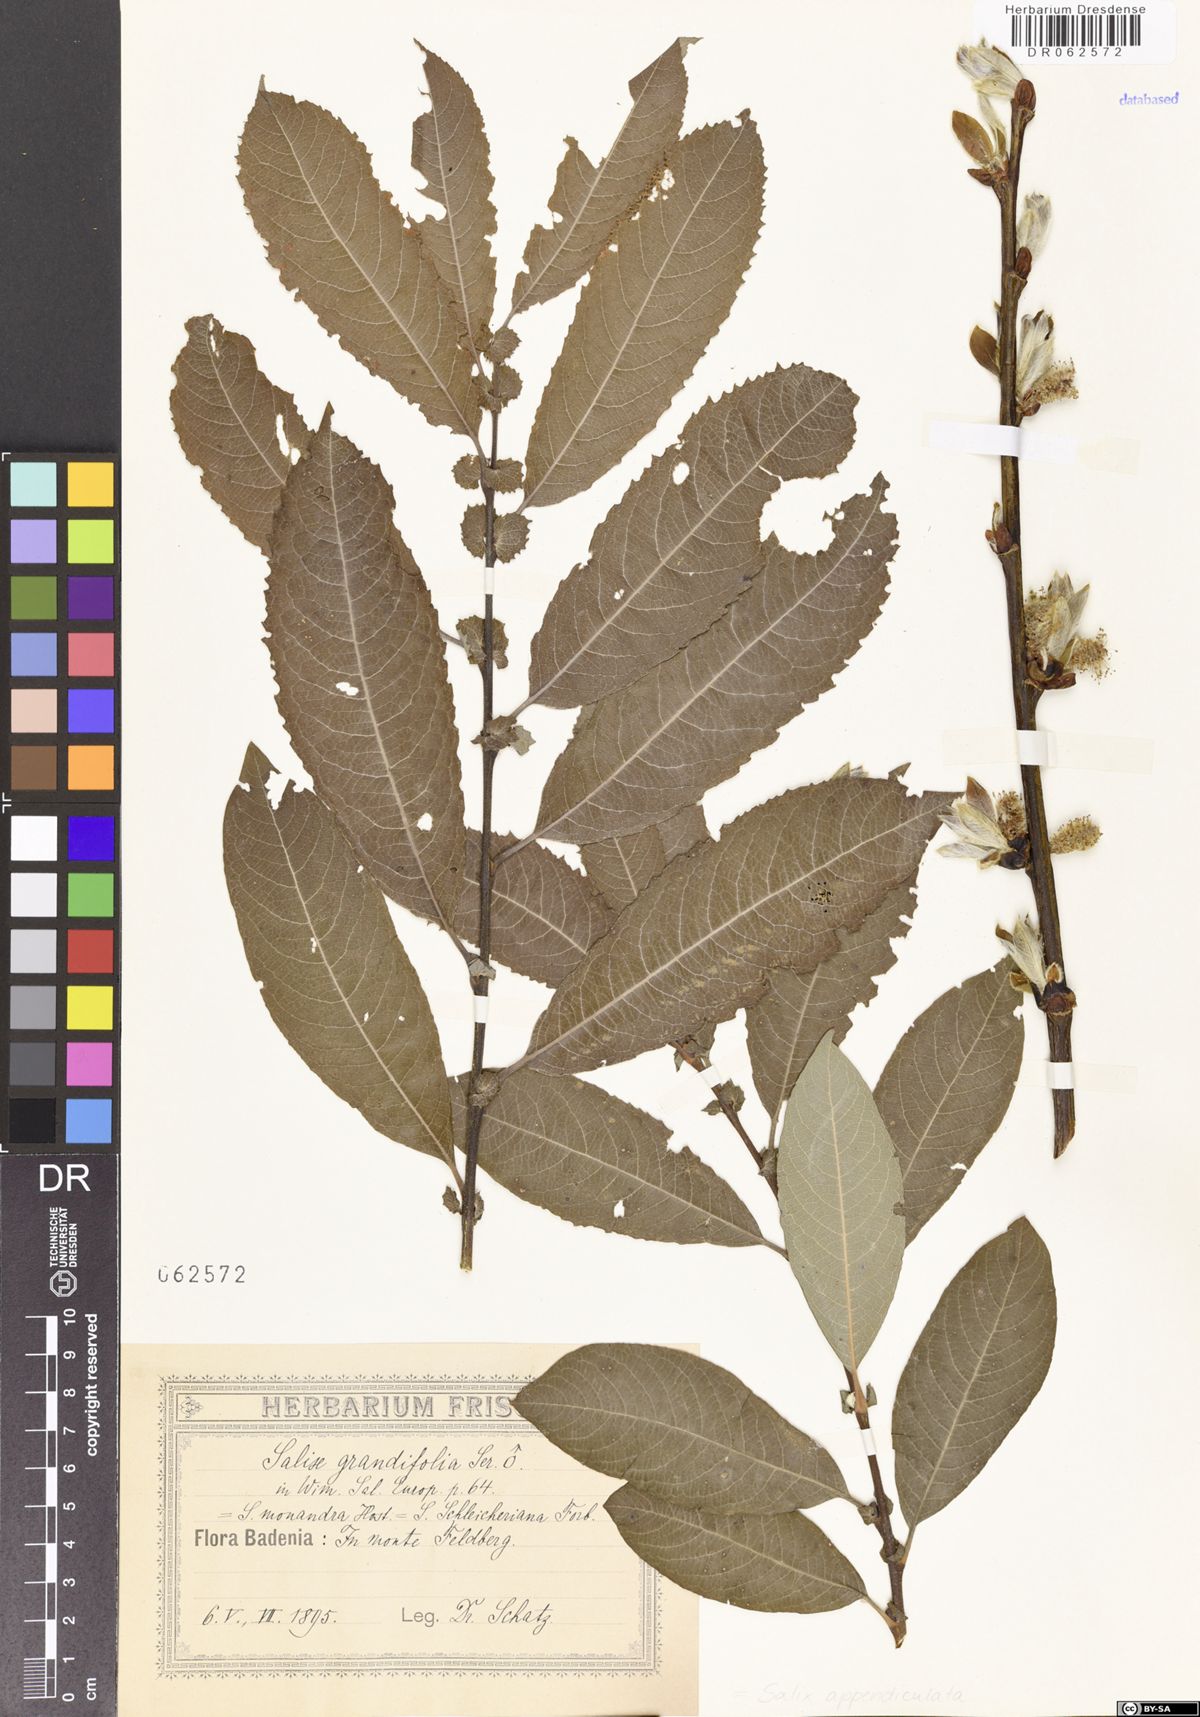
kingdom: Plantae
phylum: Tracheophyta
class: Magnoliopsida
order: Malpighiales
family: Salicaceae
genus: Salix
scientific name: Salix appendiculata
